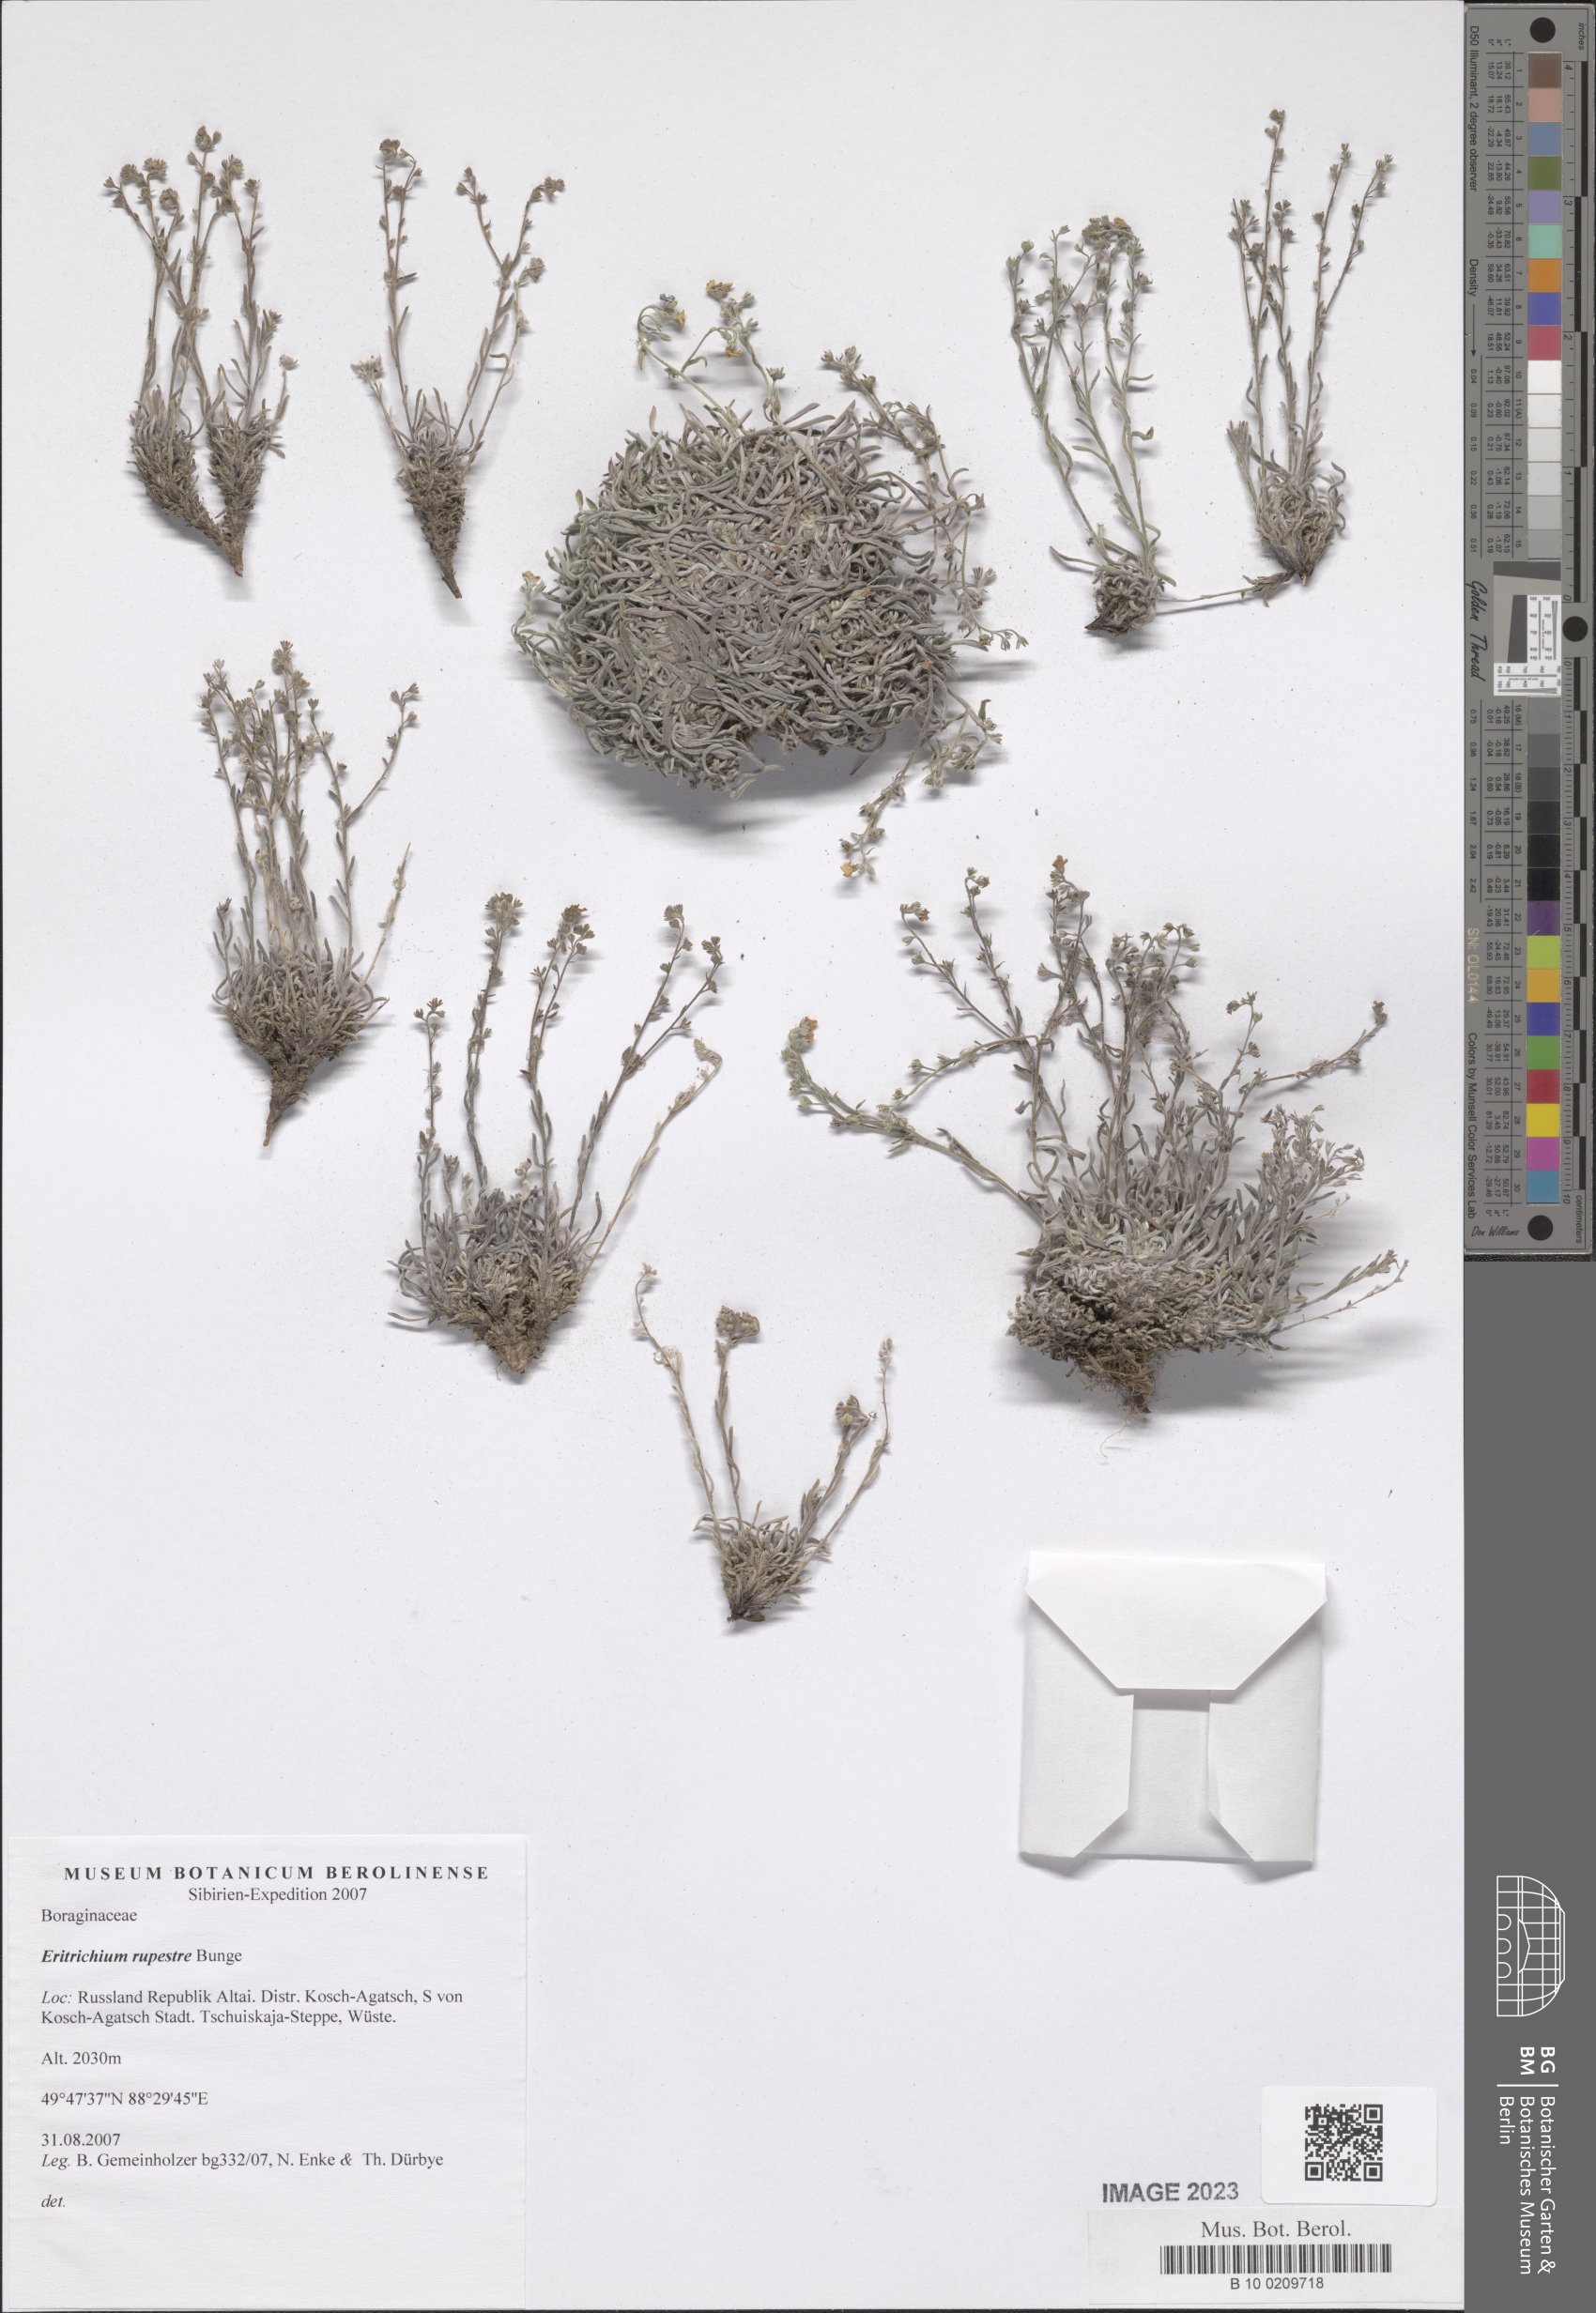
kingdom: Plantae
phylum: Tracheophyta
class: Magnoliopsida
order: Boraginales
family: Boraginaceae
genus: Eritrichium
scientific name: Eritrichium rupestre
